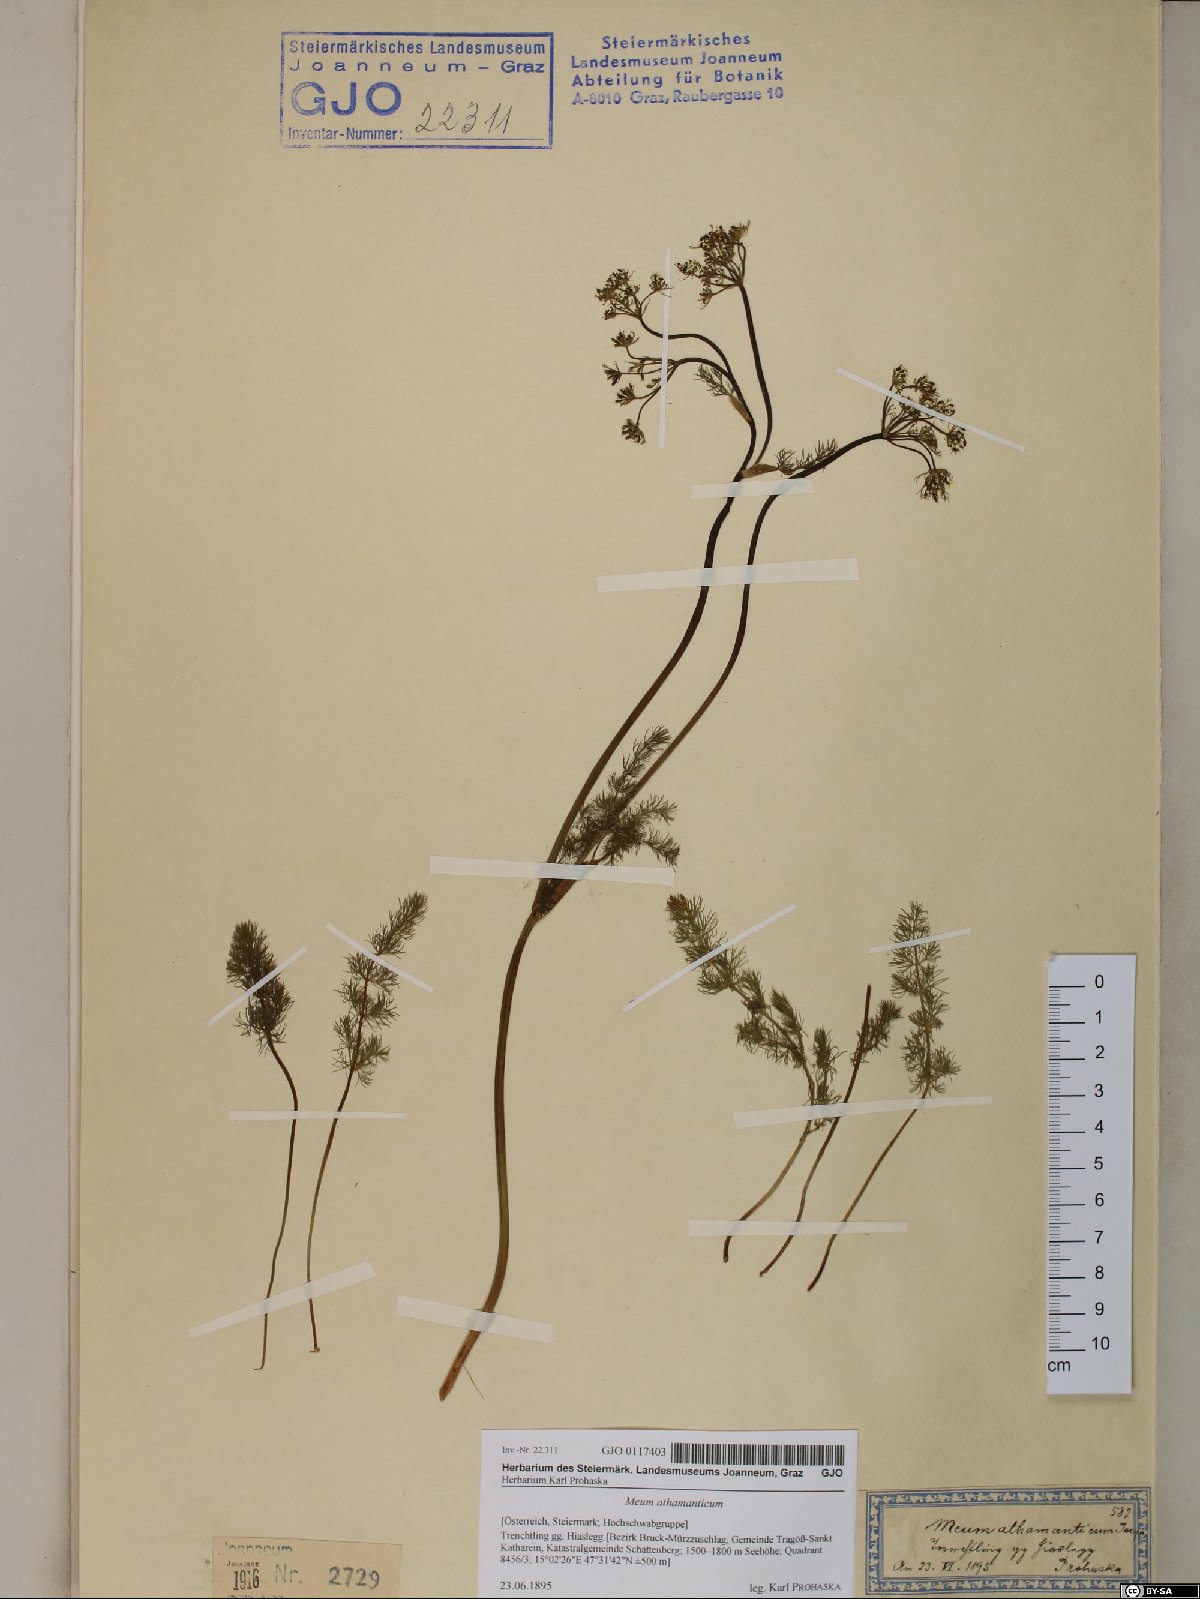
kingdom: Plantae
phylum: Tracheophyta
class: Magnoliopsida
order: Apiales
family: Apiaceae
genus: Meum
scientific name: Meum athamanticum
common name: Spignel
